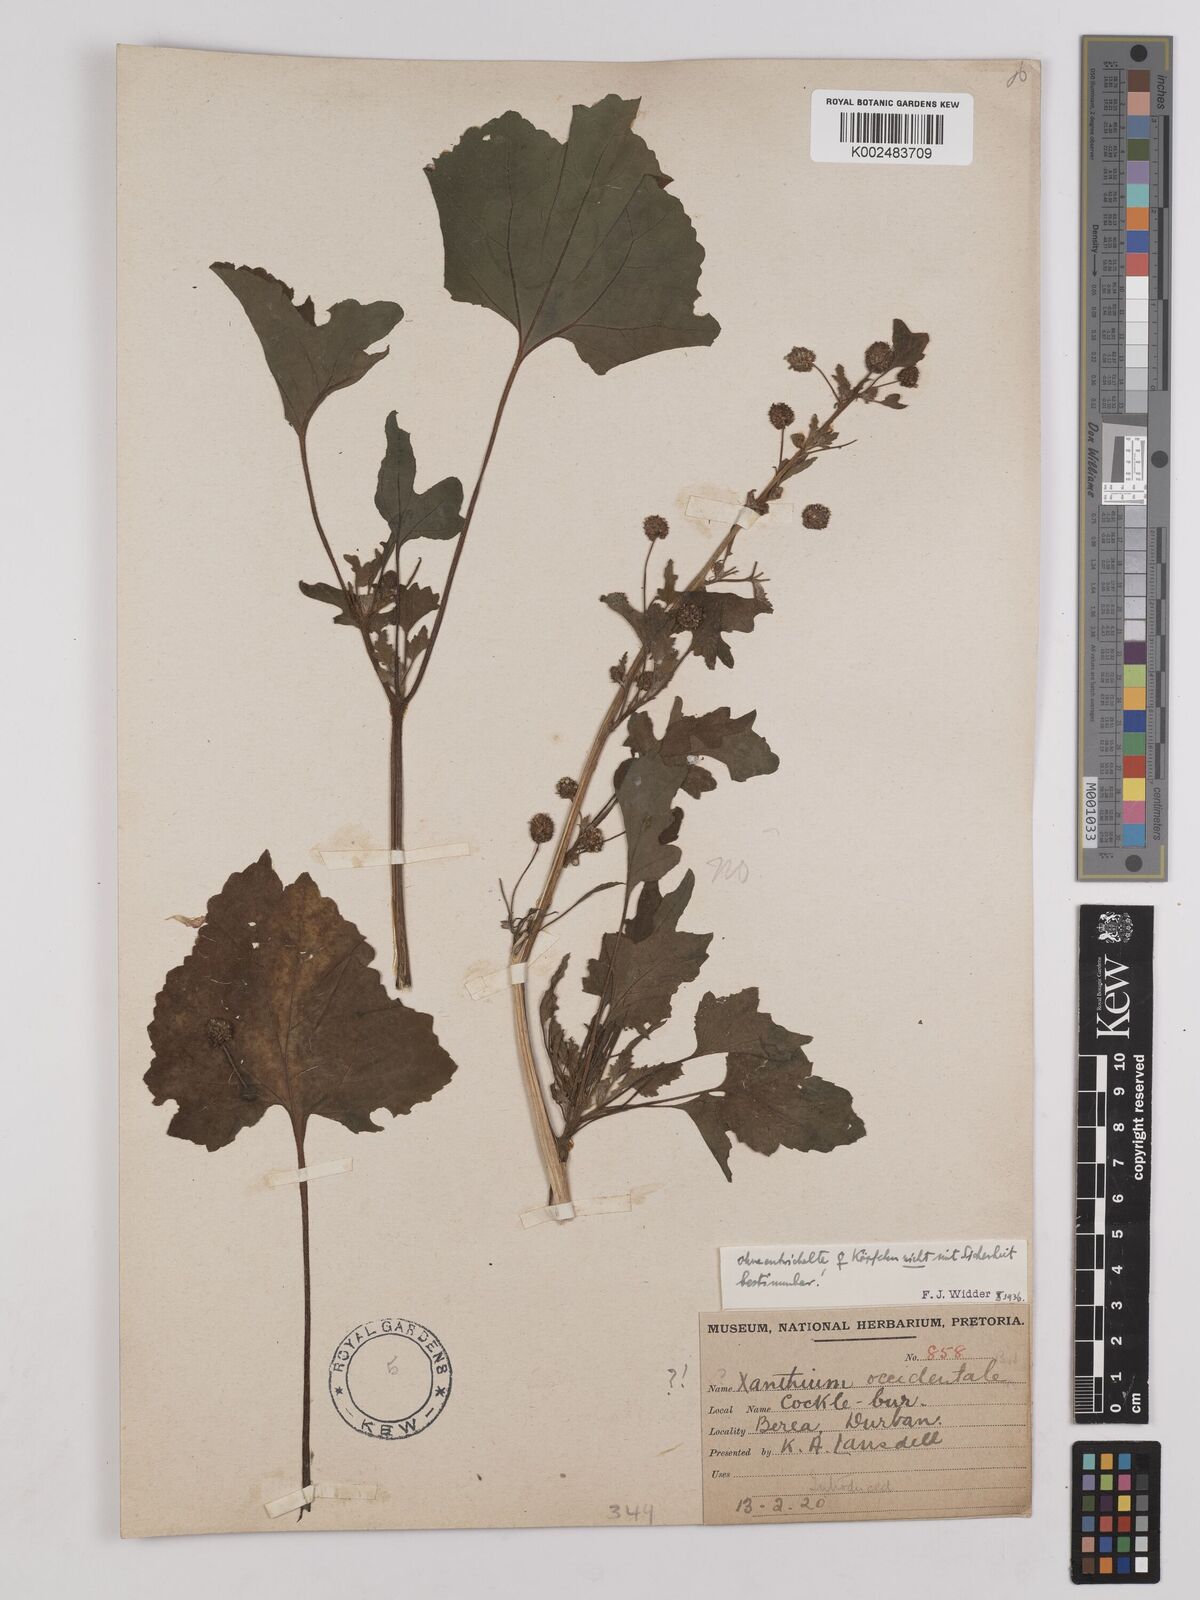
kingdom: Plantae
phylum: Tracheophyta
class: Magnoliopsida
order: Asterales
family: Asteraceae
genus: Xanthium
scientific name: Xanthium
